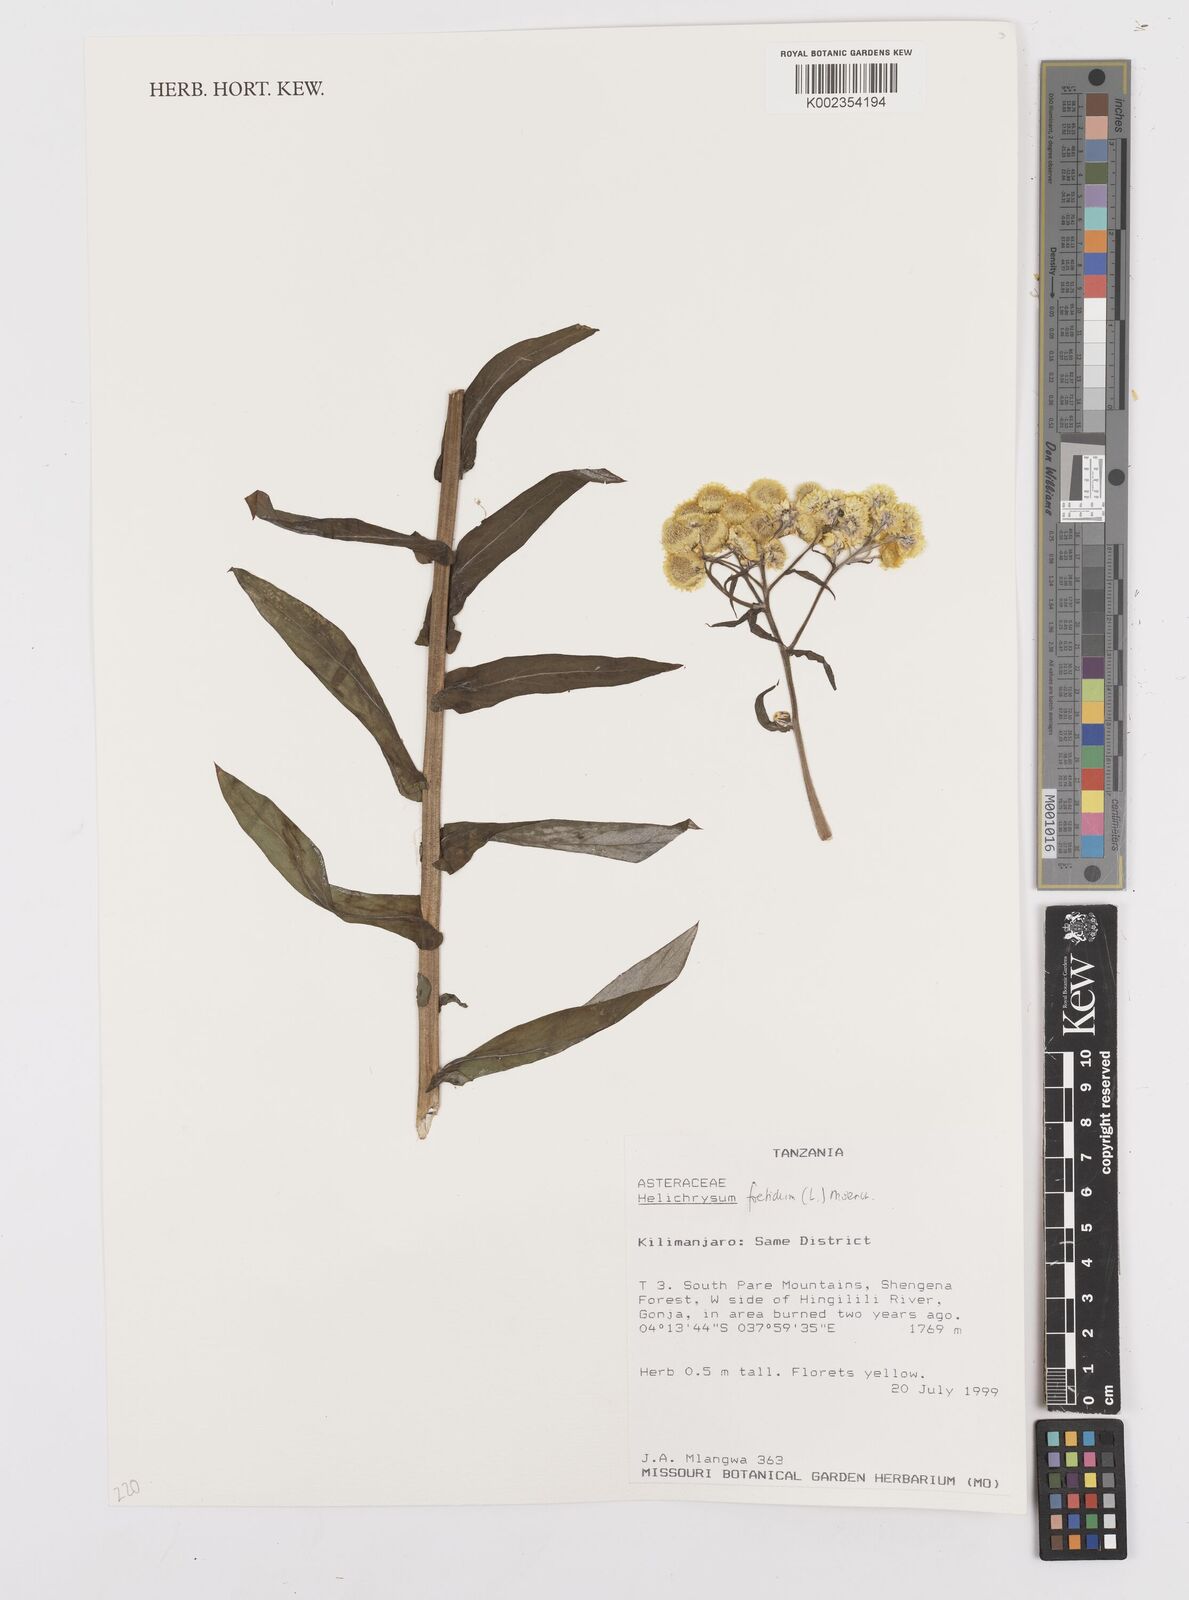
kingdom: Plantae
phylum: Tracheophyta
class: Magnoliopsida
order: Asterales
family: Asteraceae
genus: Helichrysum
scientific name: Helichrysum foetidum
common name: Stinking everlasting
